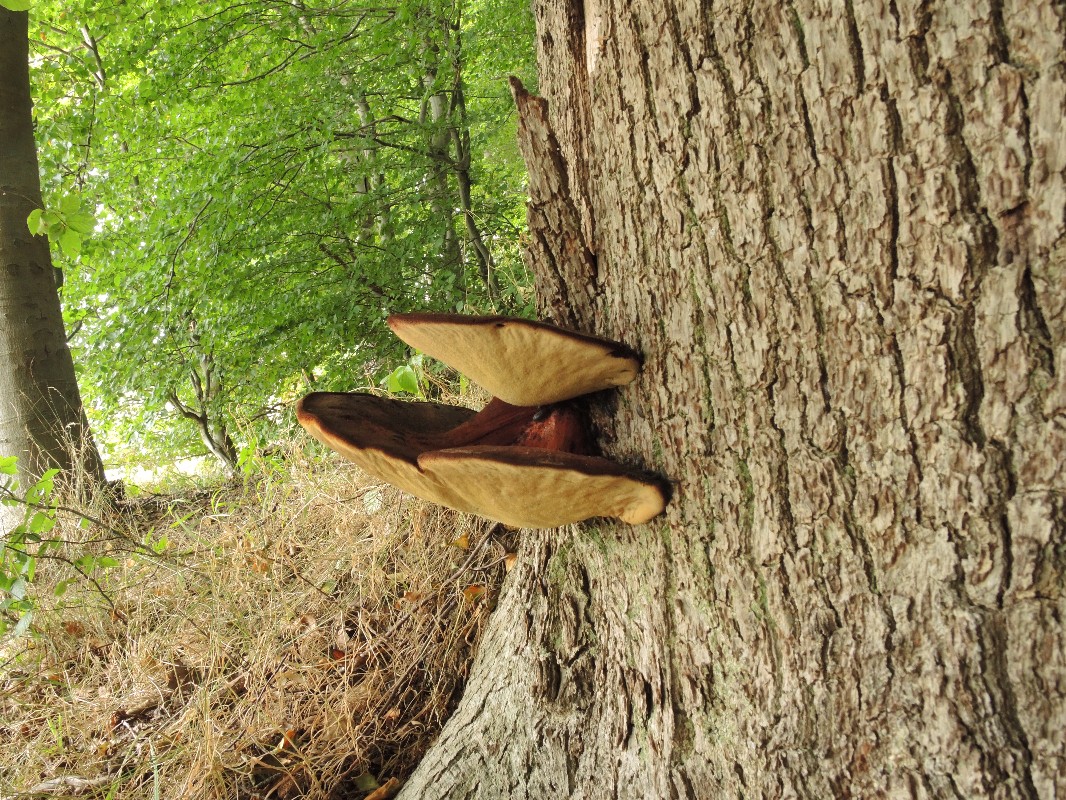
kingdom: Fungi
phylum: Basidiomycota
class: Agaricomycetes
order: Agaricales
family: Fistulinaceae
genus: Fistulina
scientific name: Fistulina hepatica
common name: oksetunge
